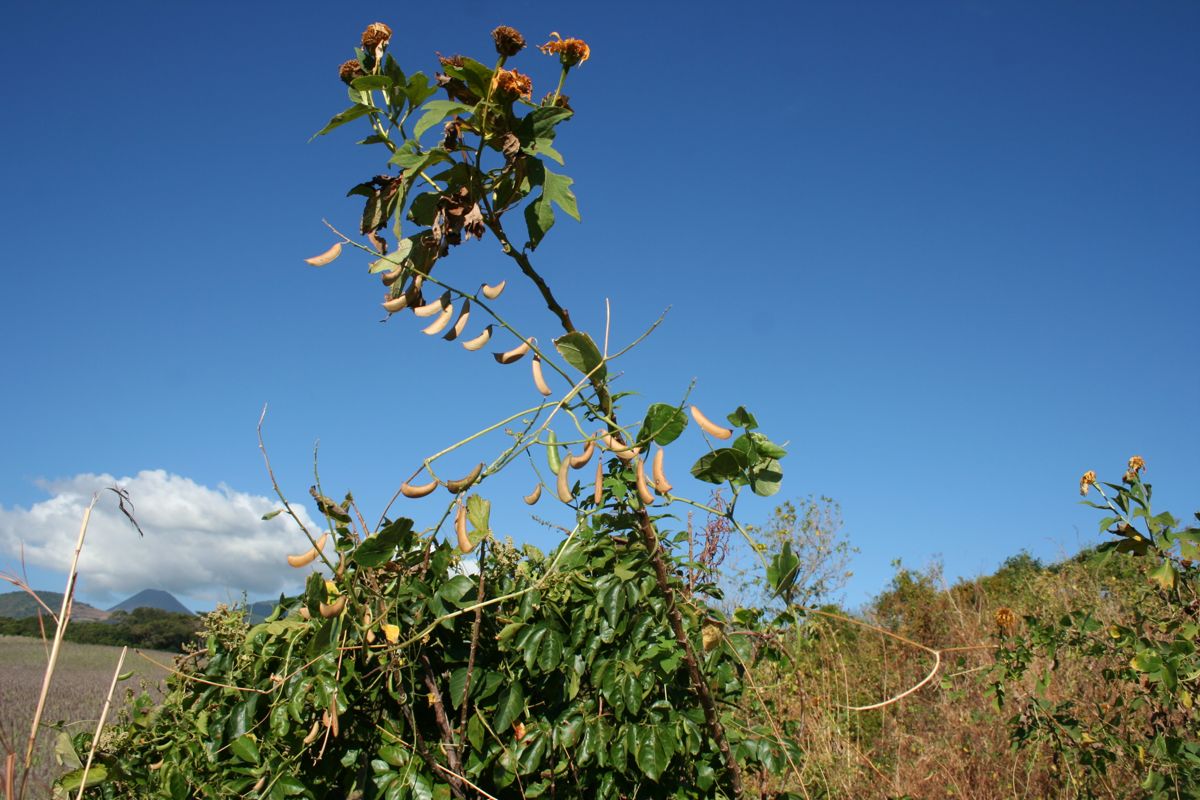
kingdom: Plantae
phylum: Tracheophyta
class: Magnoliopsida
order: Fabales
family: Fabaceae
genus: Phaseolus
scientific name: Phaseolus lunatus
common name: Sieva bean
